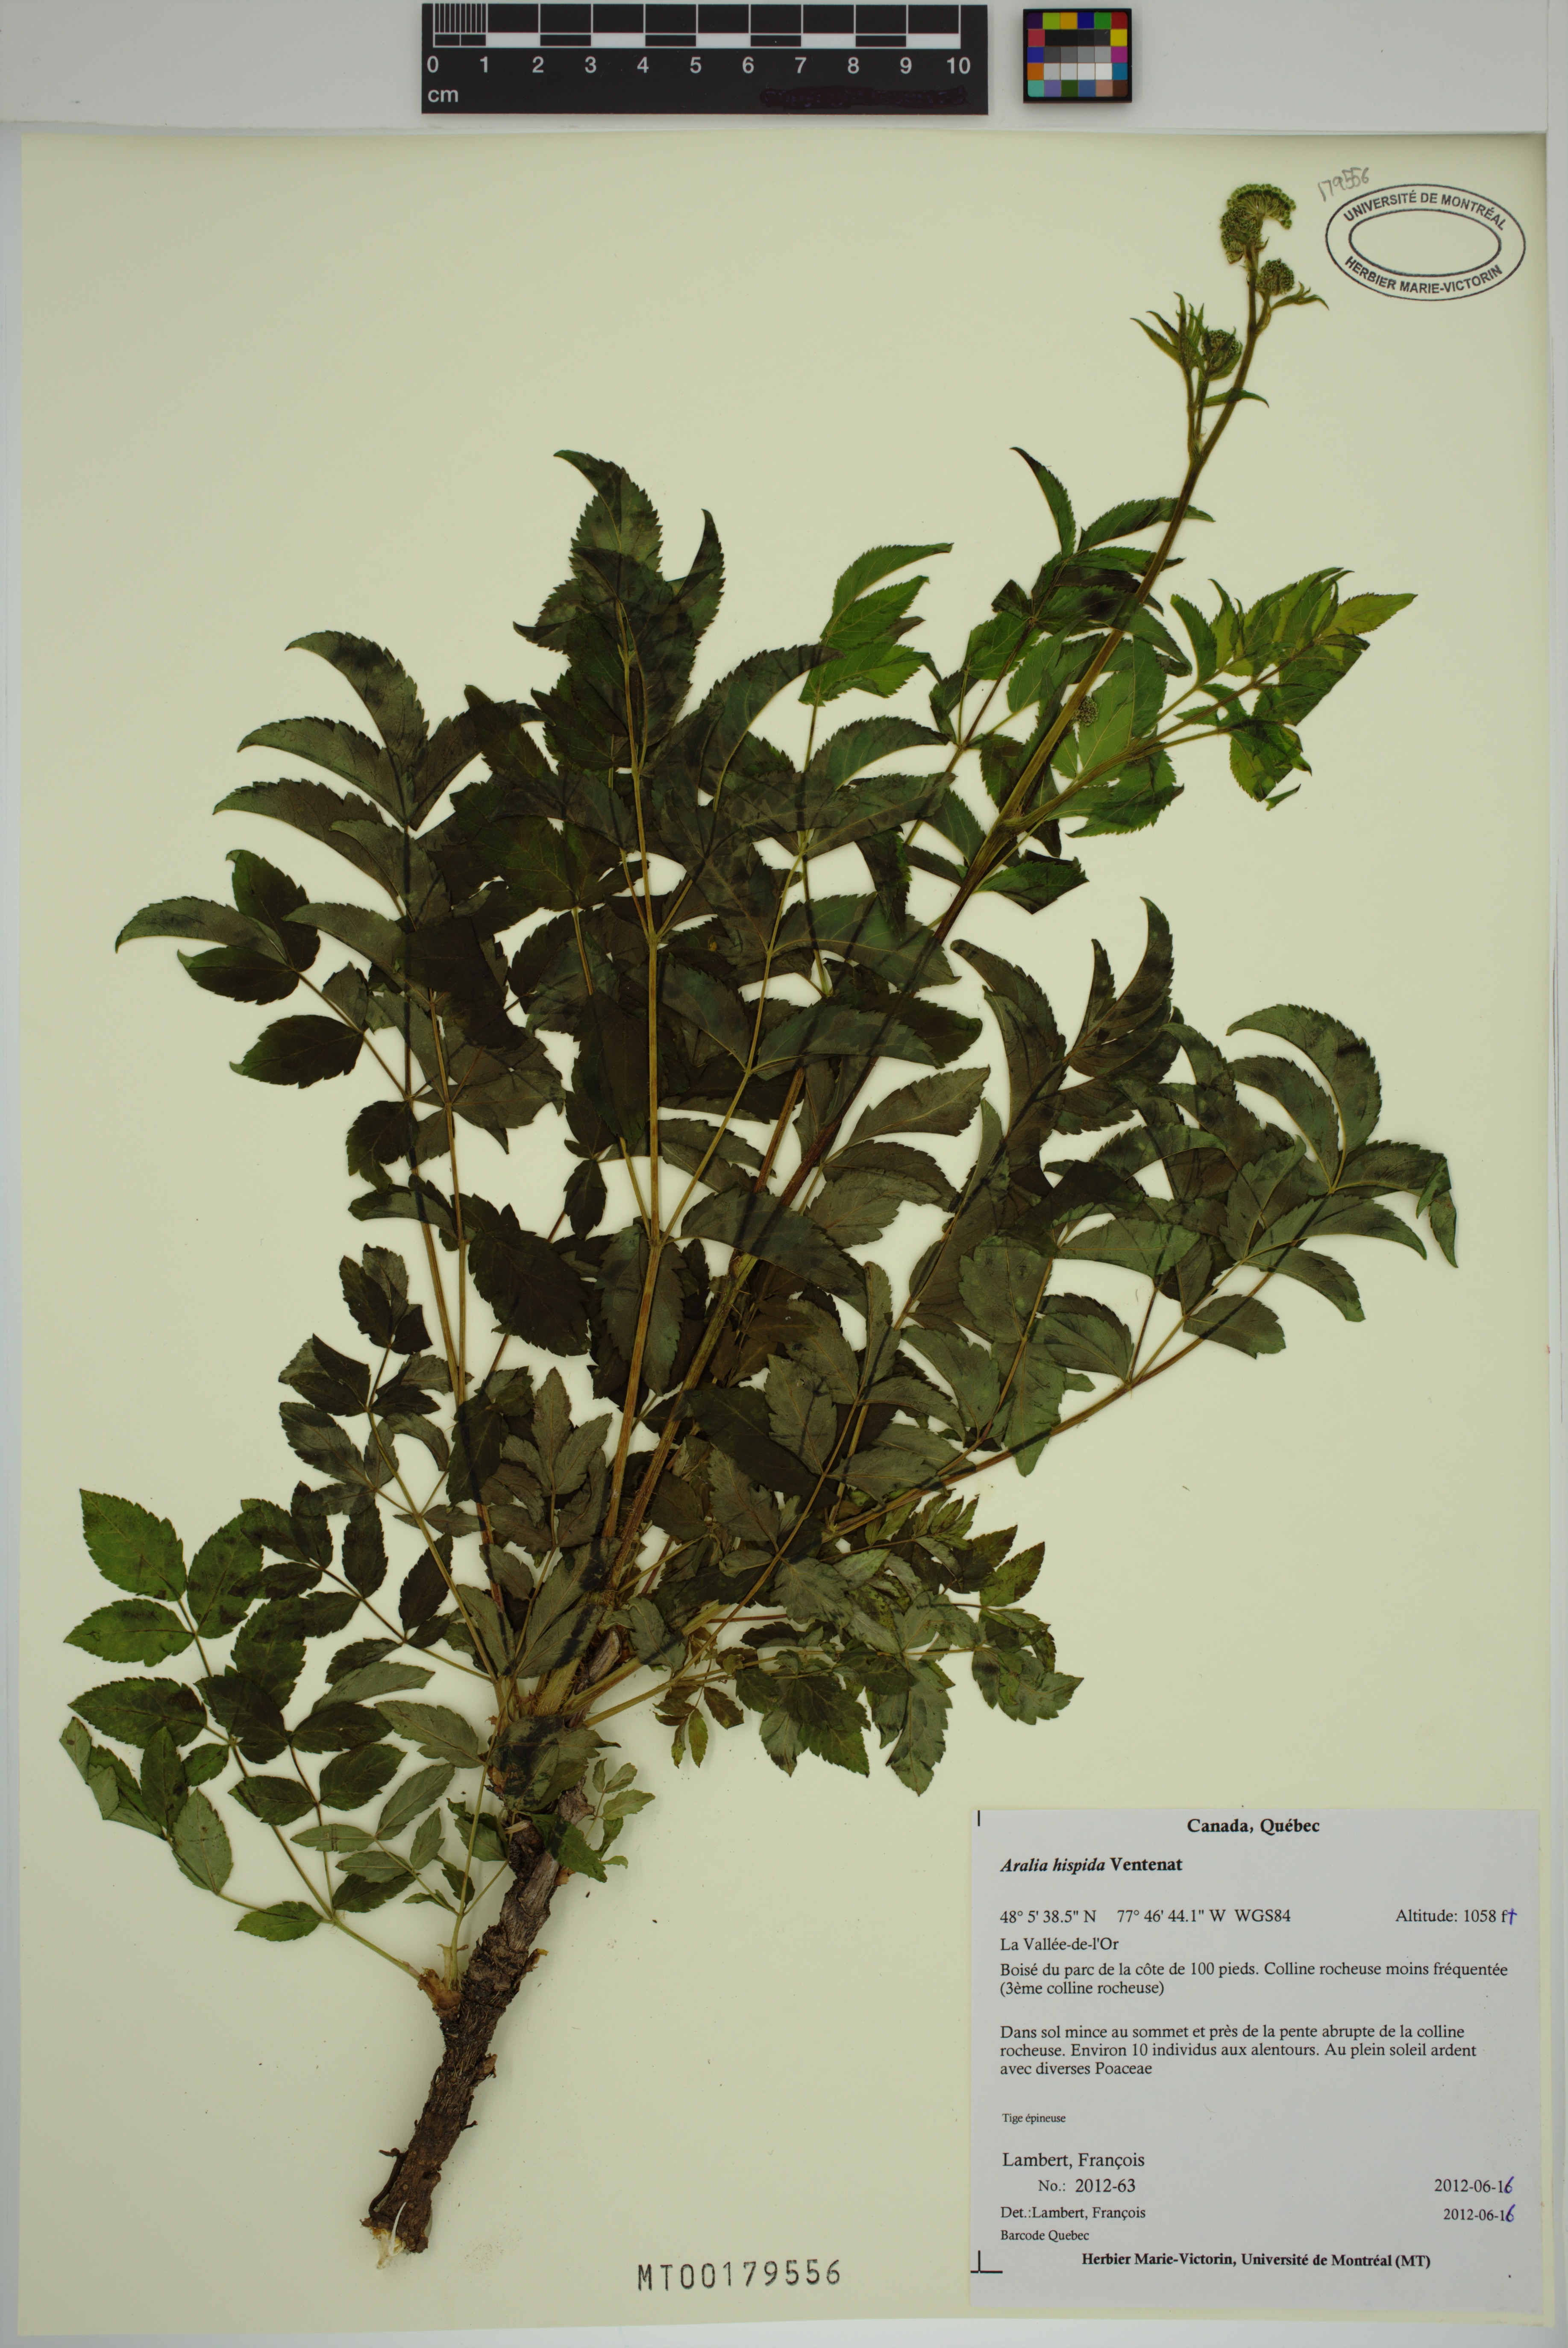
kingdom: Plantae
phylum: Tracheophyta
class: Magnoliopsida
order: Apiales
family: Araliaceae
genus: Aralia
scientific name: Aralia hispida
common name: Bristly sarsaparilla
